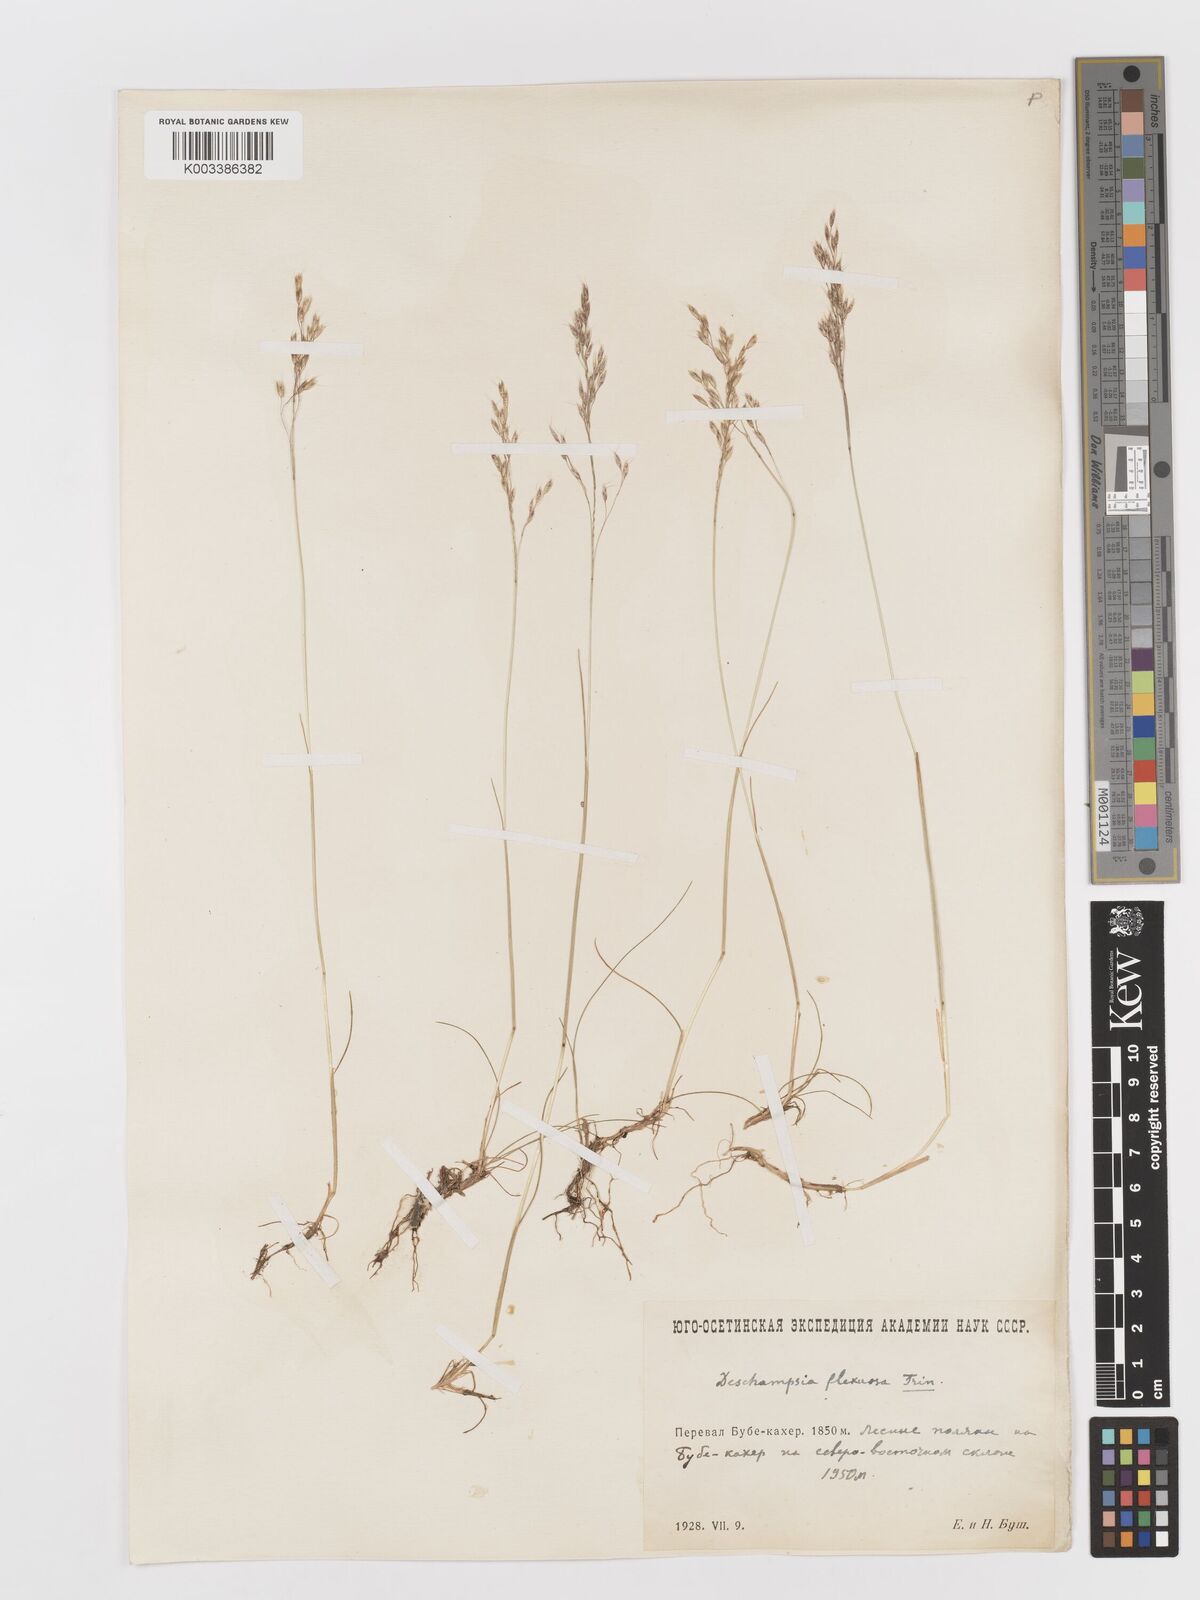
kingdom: Plantae
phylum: Tracheophyta
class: Liliopsida
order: Poales
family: Poaceae
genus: Avenella
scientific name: Avenella flexuosa
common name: Wavy hairgrass
